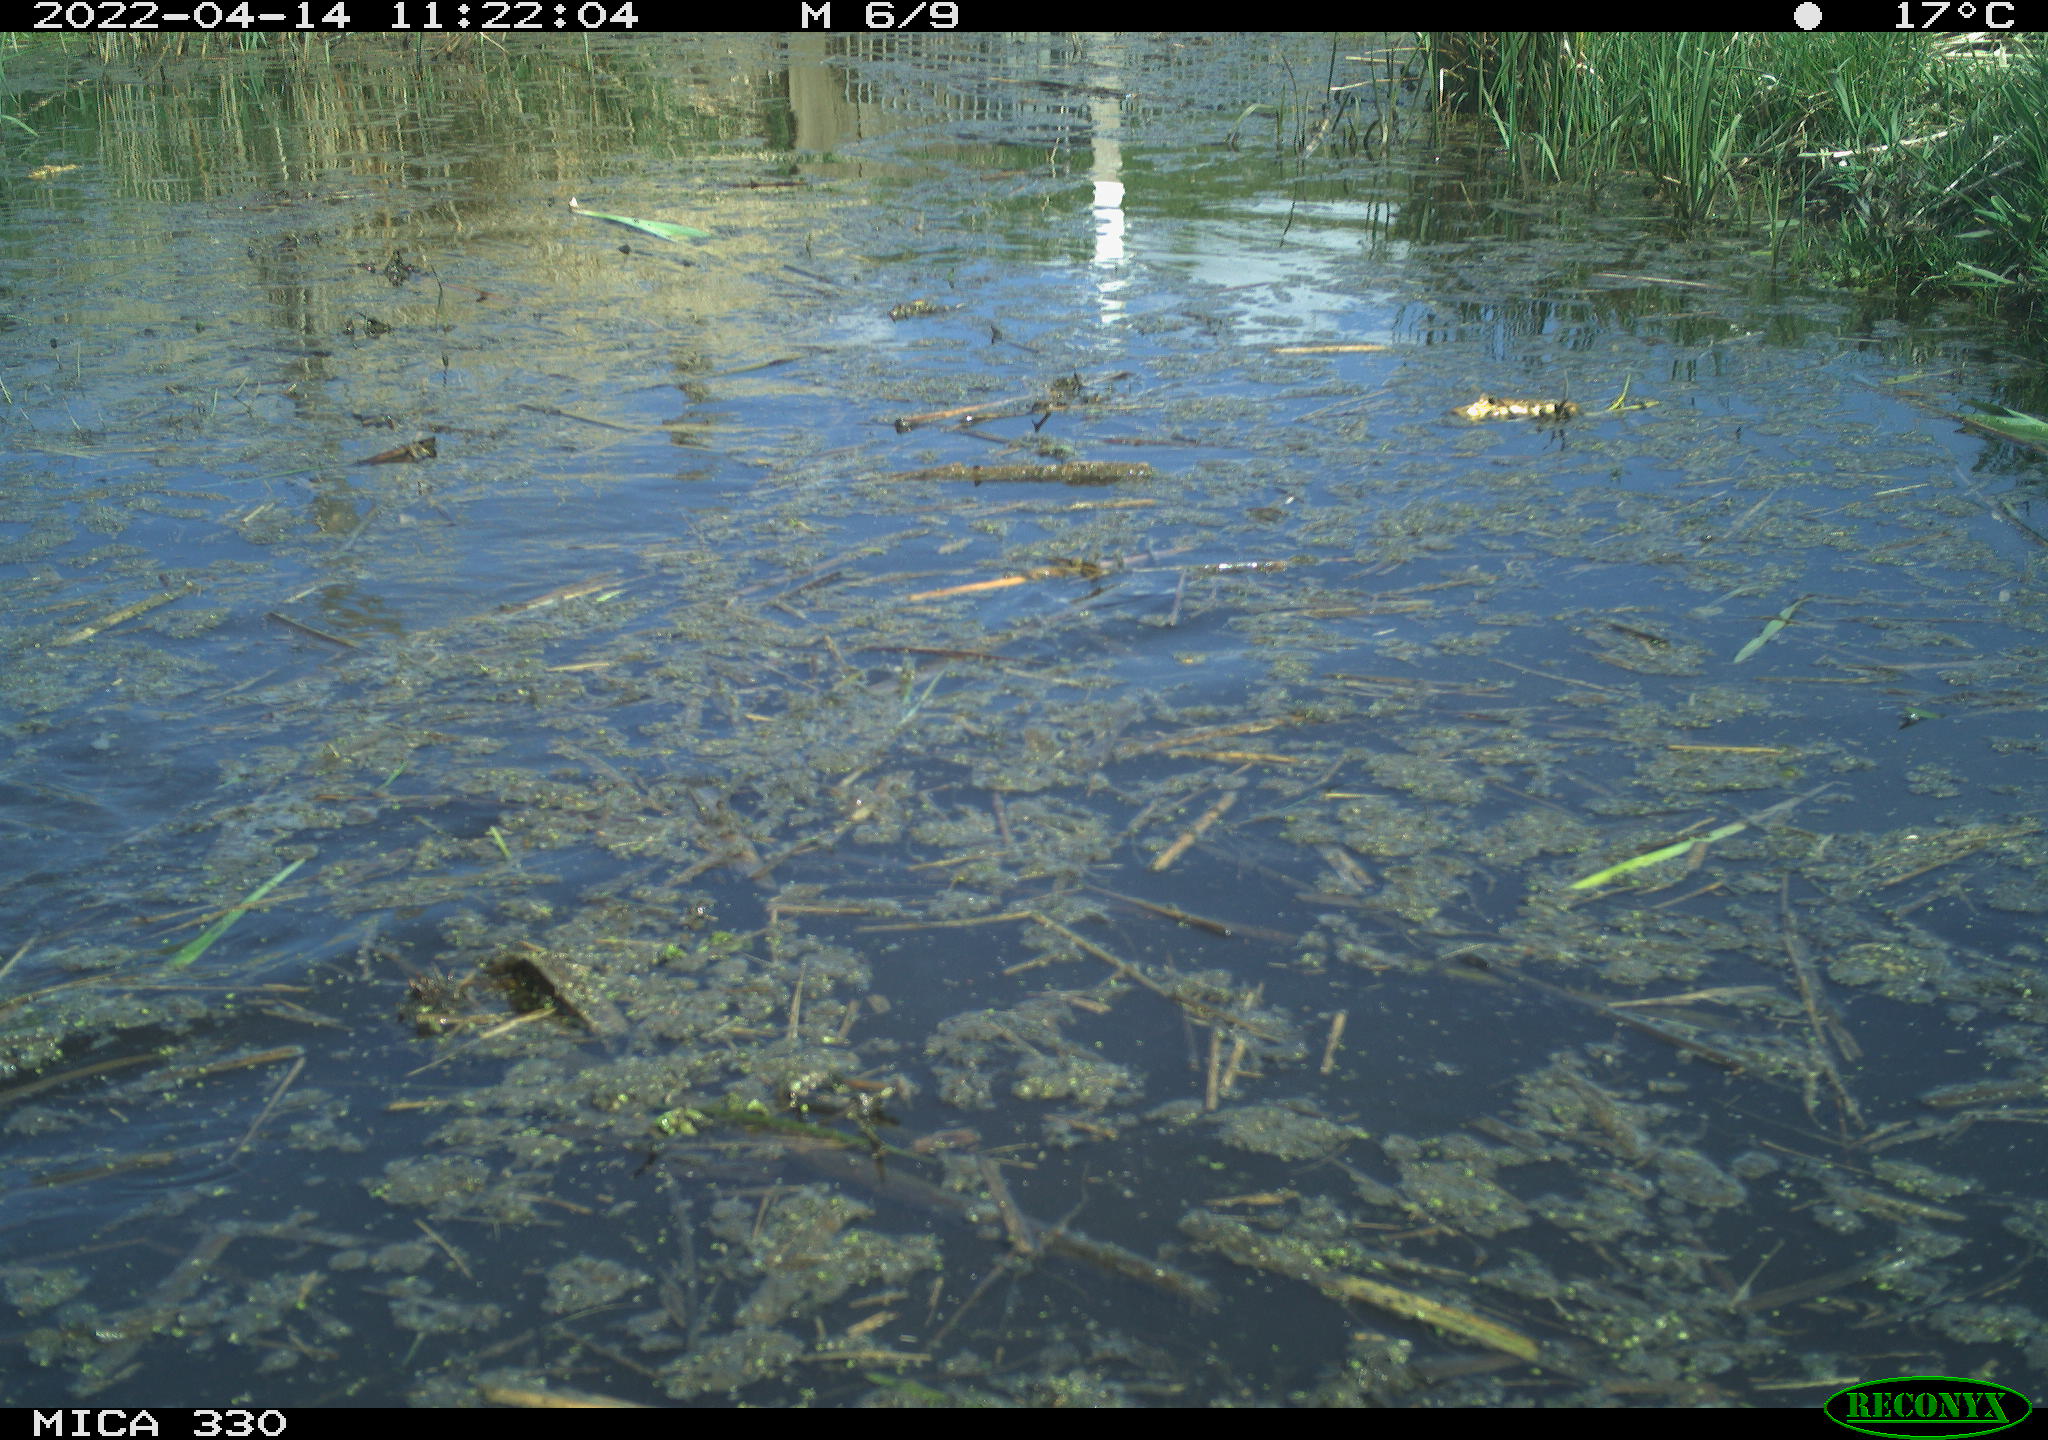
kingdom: Animalia
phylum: Chordata
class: Aves
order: Anseriformes
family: Anatidae
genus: Anas
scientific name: Anas platyrhynchos
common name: Mallard
